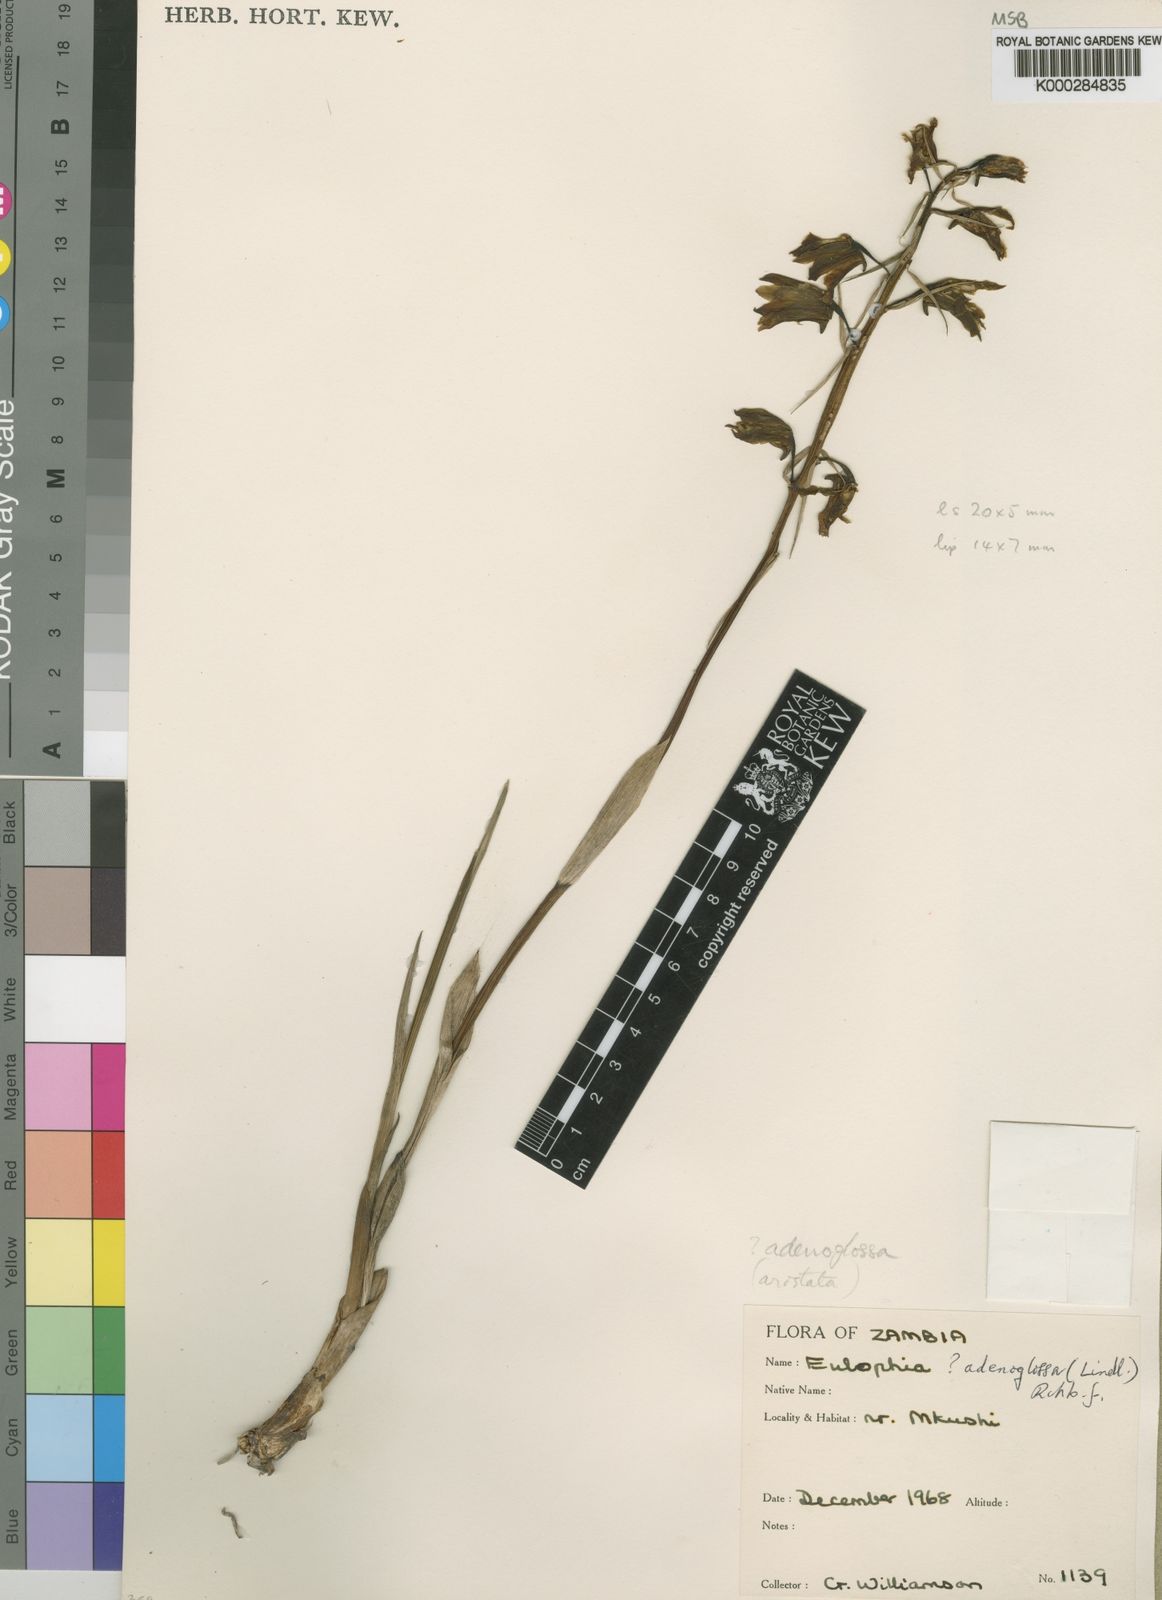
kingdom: Plantae
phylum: Tracheophyta
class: Liliopsida
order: Asparagales
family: Orchidaceae
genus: Eulophia
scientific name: Eulophia adenoglossa
